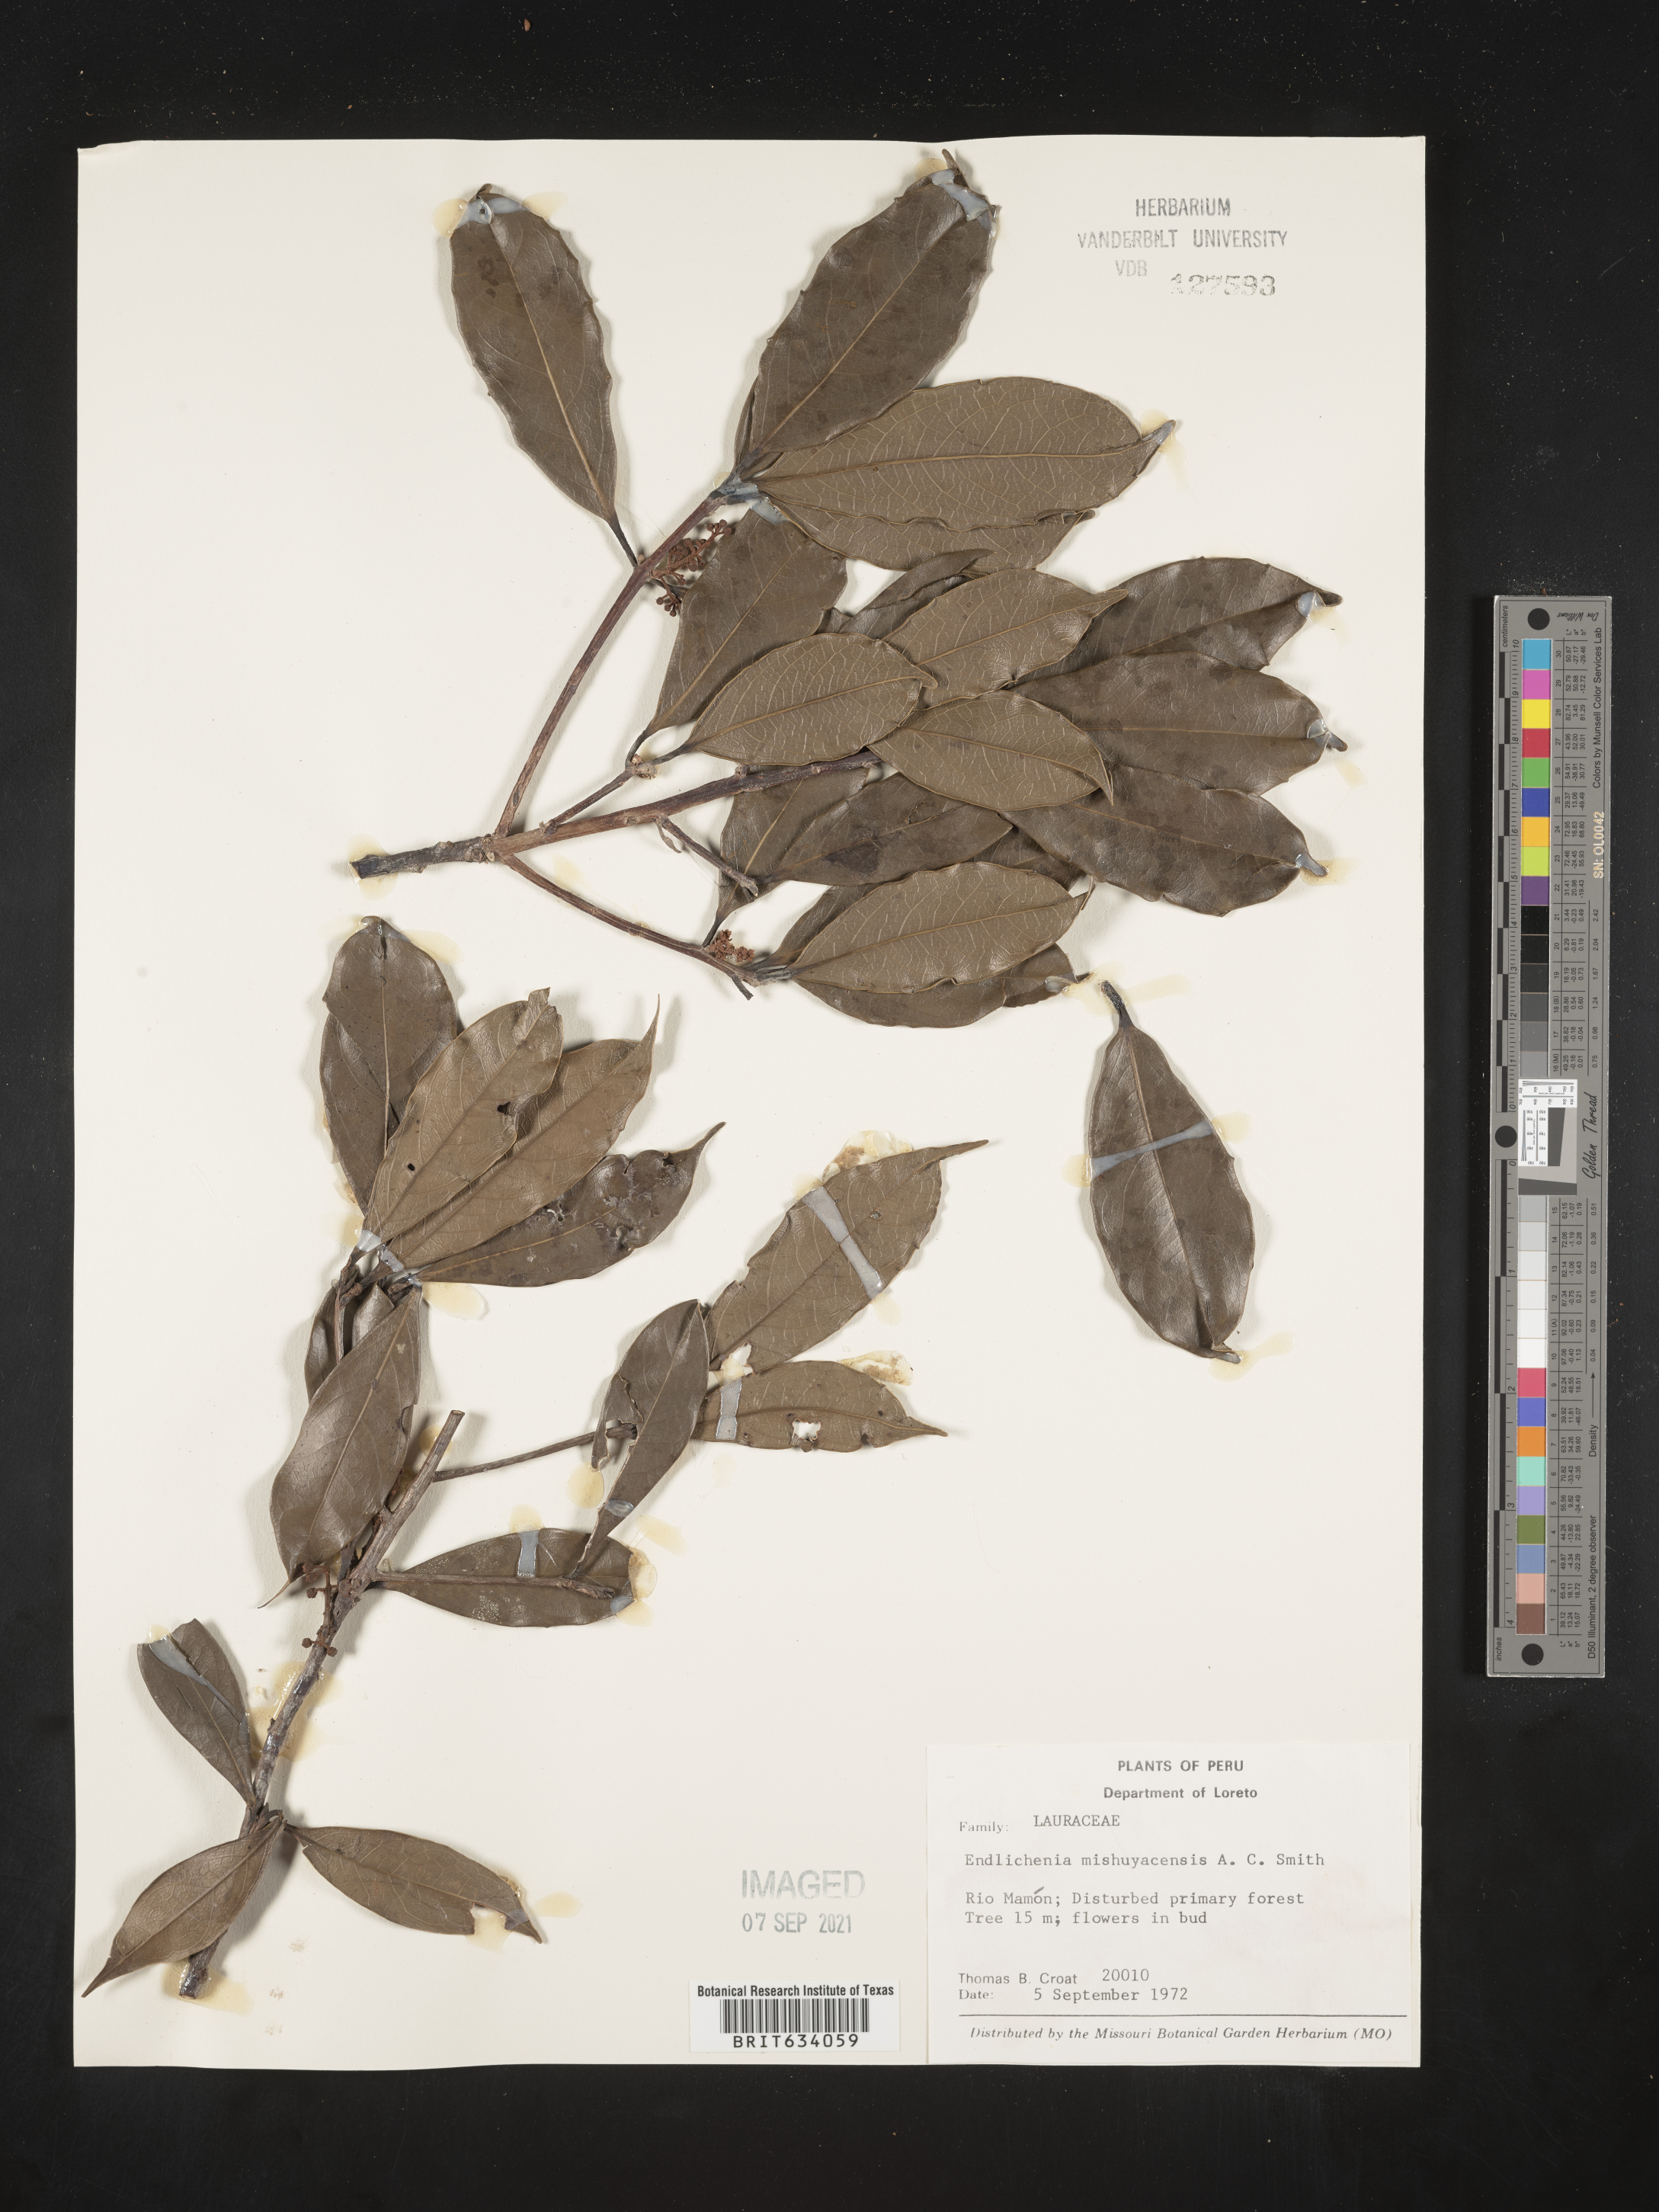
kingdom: Plantae
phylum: Tracheophyta
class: Magnoliopsida
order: Laurales
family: Lauraceae
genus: Endlicheria
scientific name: Endlicheria
